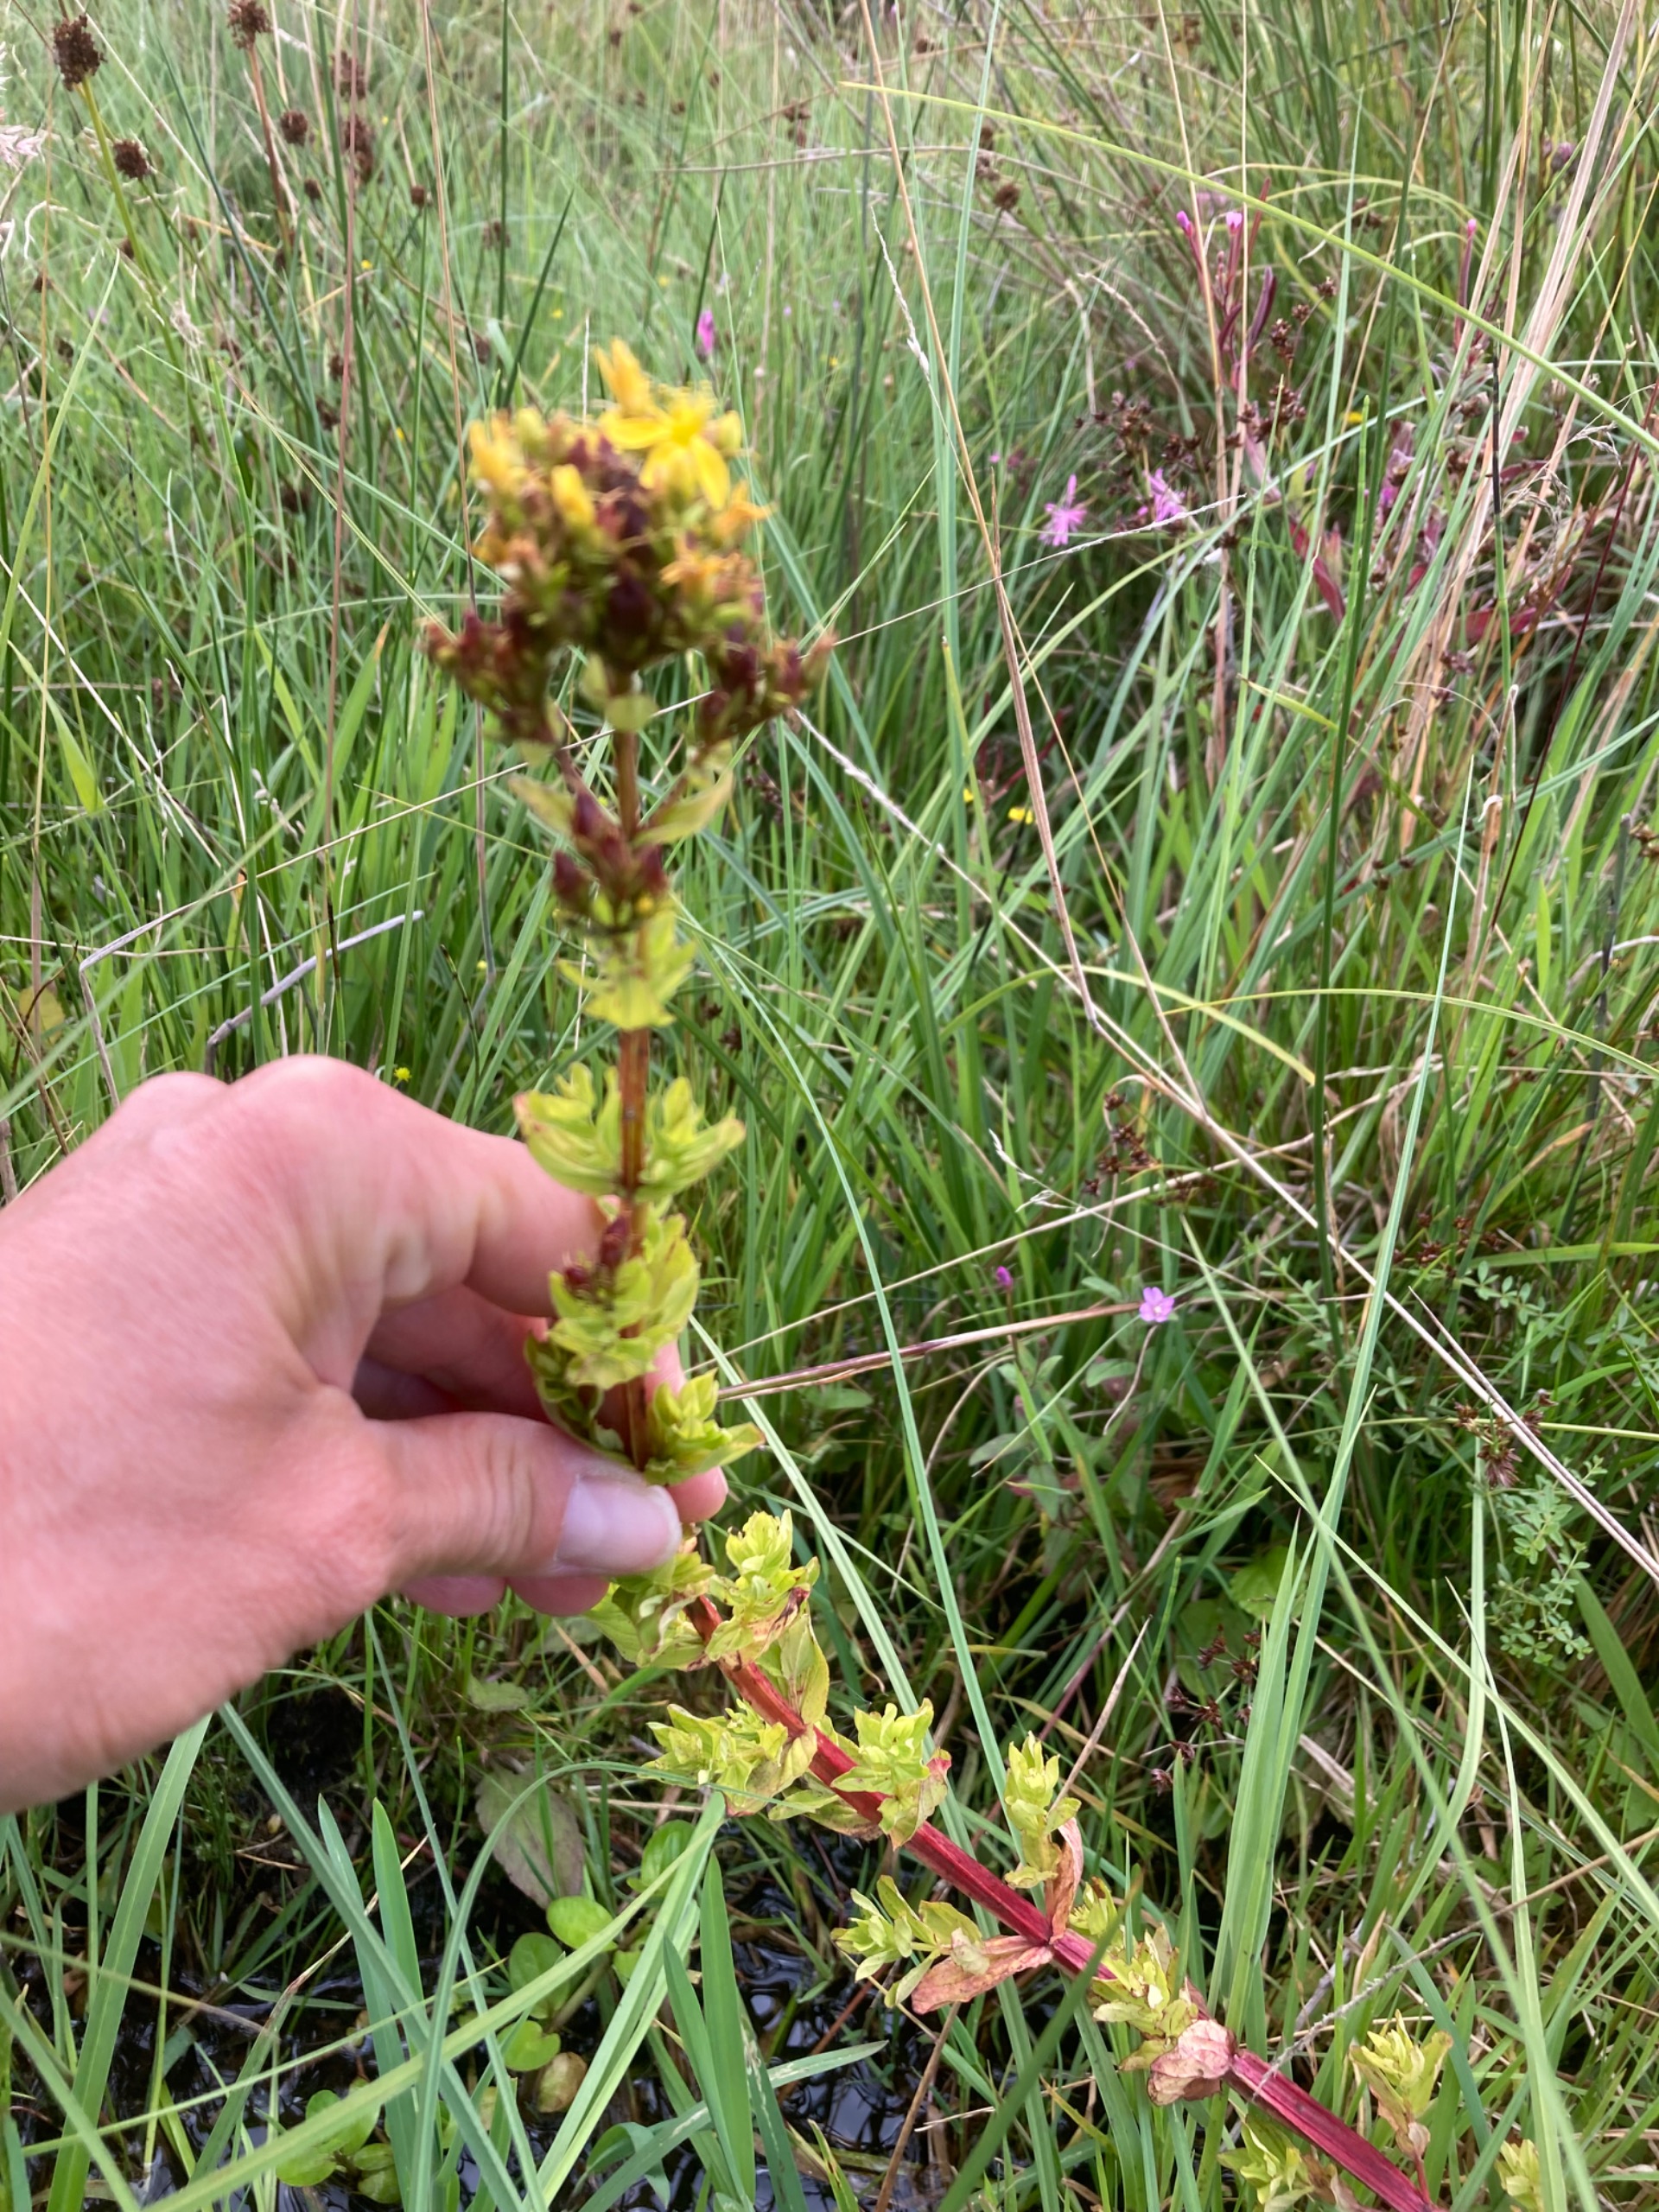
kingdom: Plantae
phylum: Tracheophyta
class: Magnoliopsida
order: Malpighiales
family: Hypericaceae
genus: Hypericum
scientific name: Hypericum tetrapterum
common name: Vinget perikon
